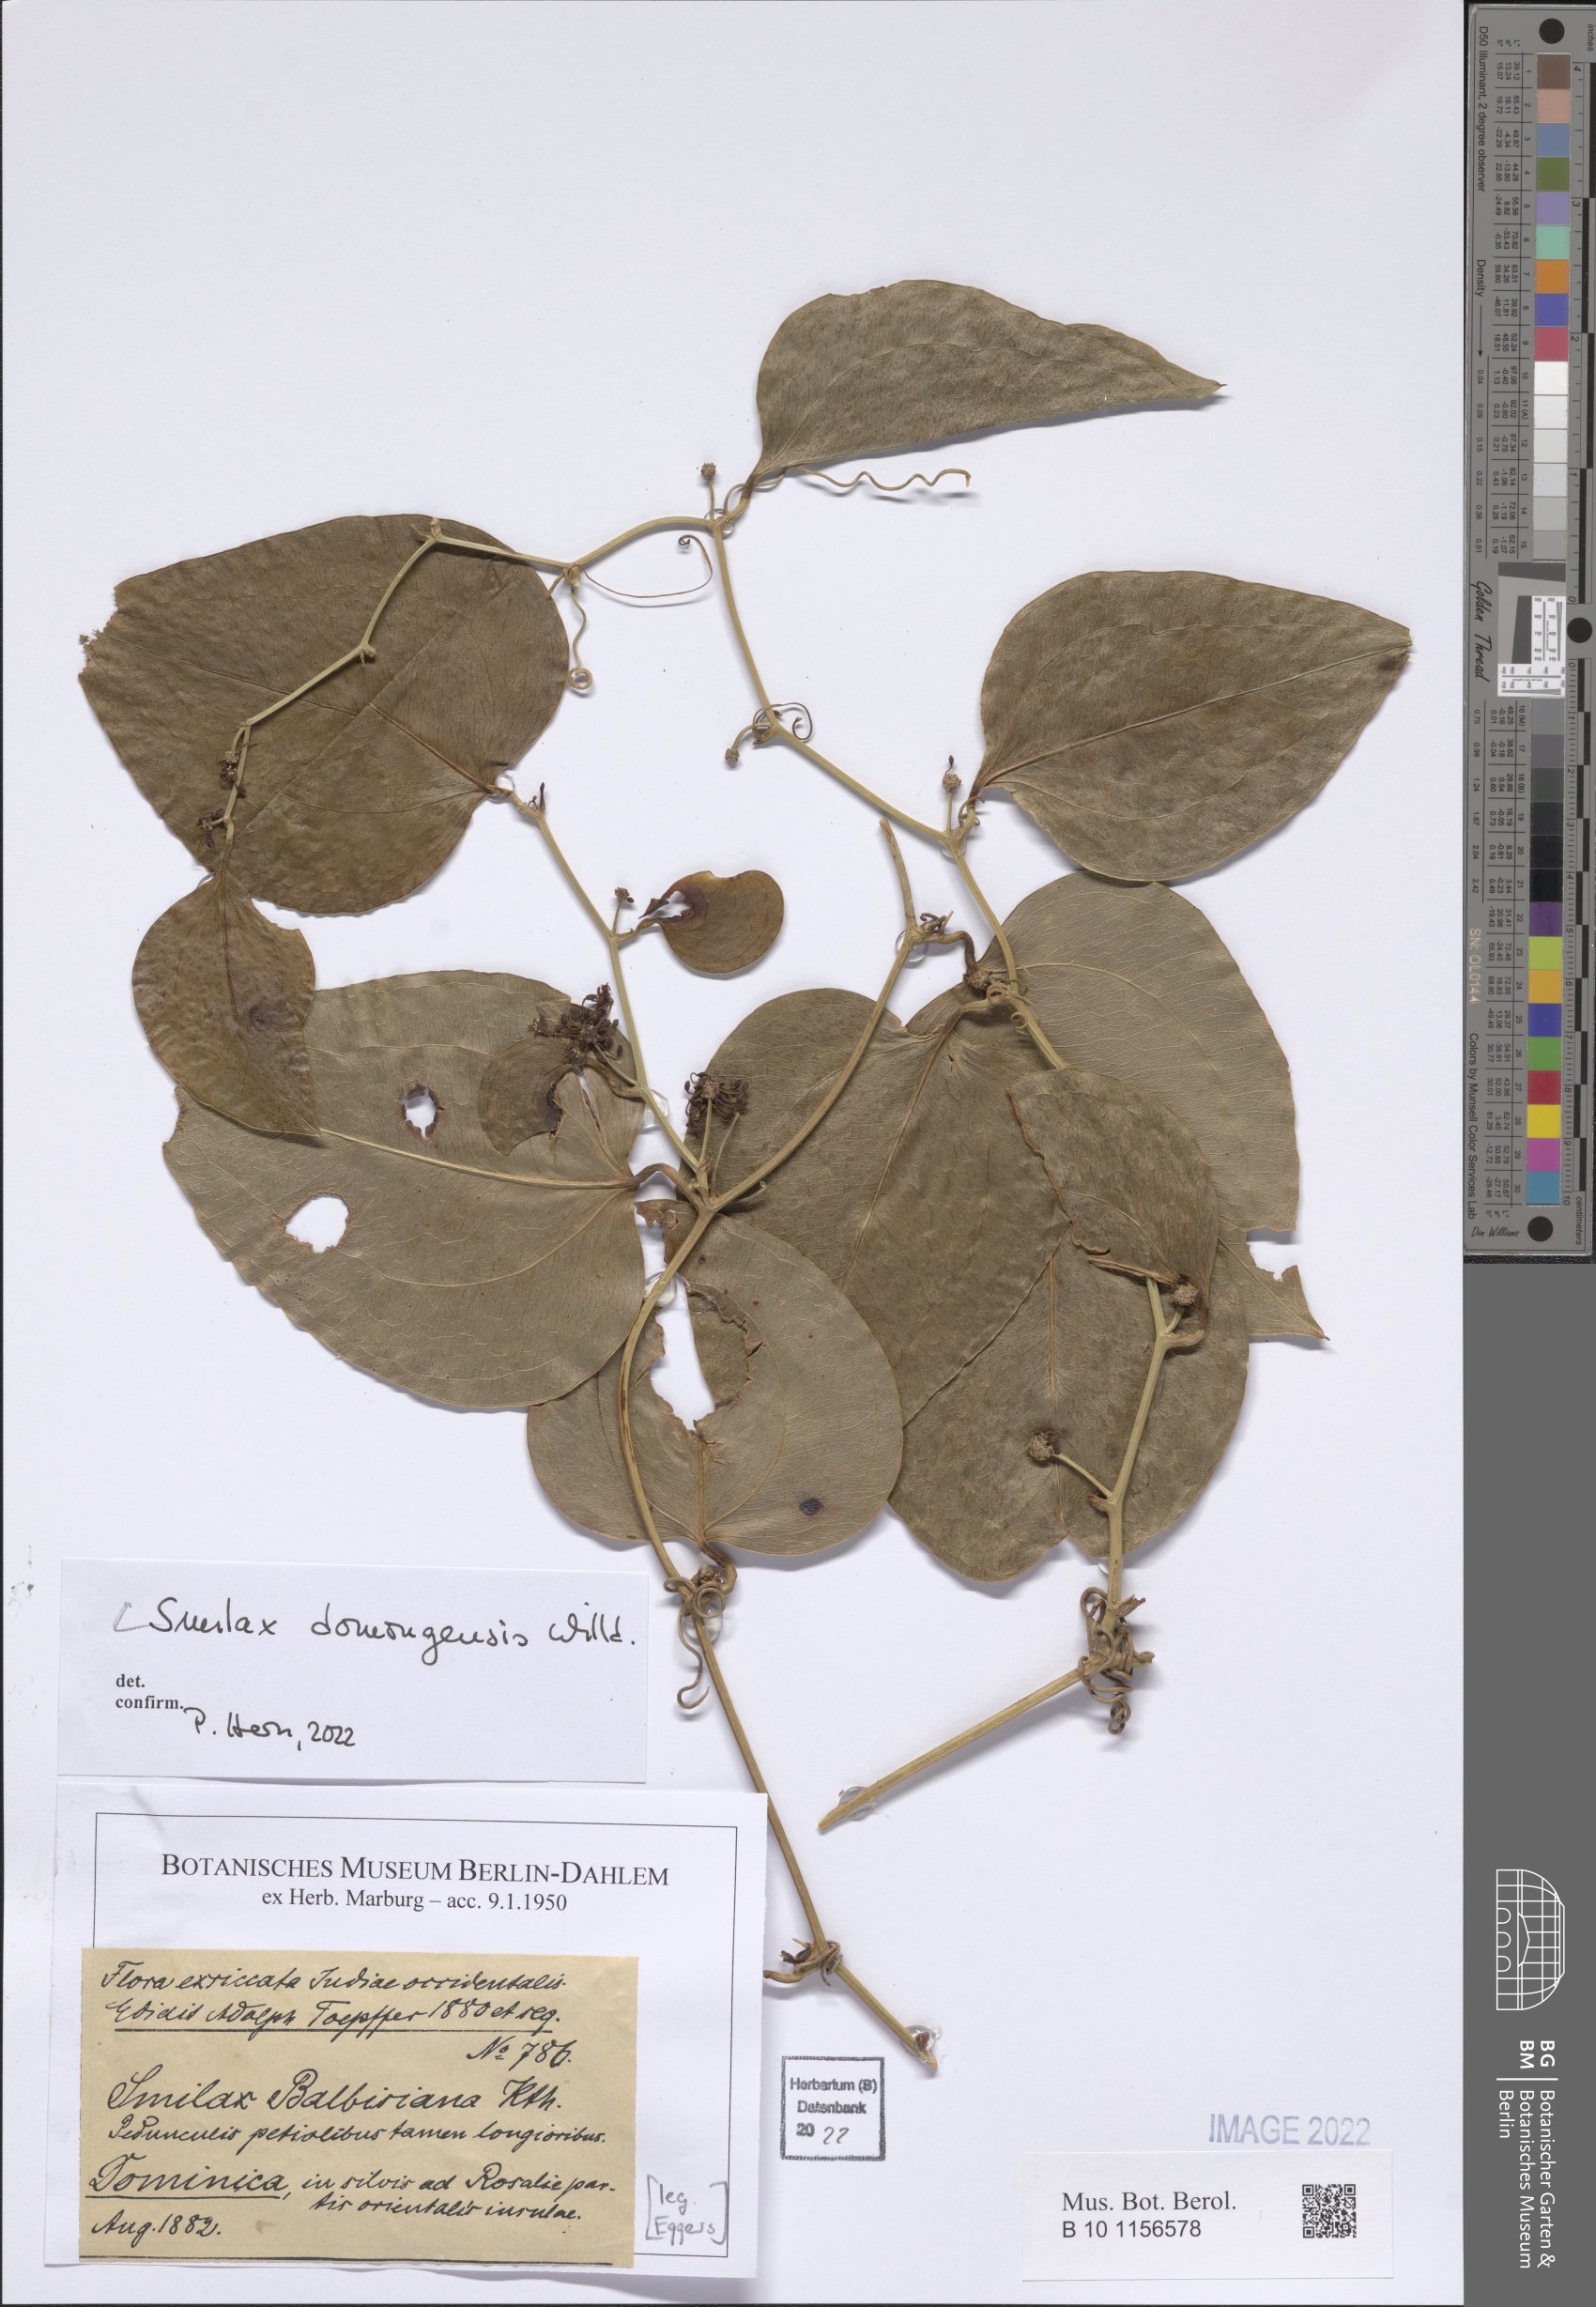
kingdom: Plantae
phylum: Tracheophyta
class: Liliopsida
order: Liliales
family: Smilacaceae
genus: Smilax
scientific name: Smilax domingensis
